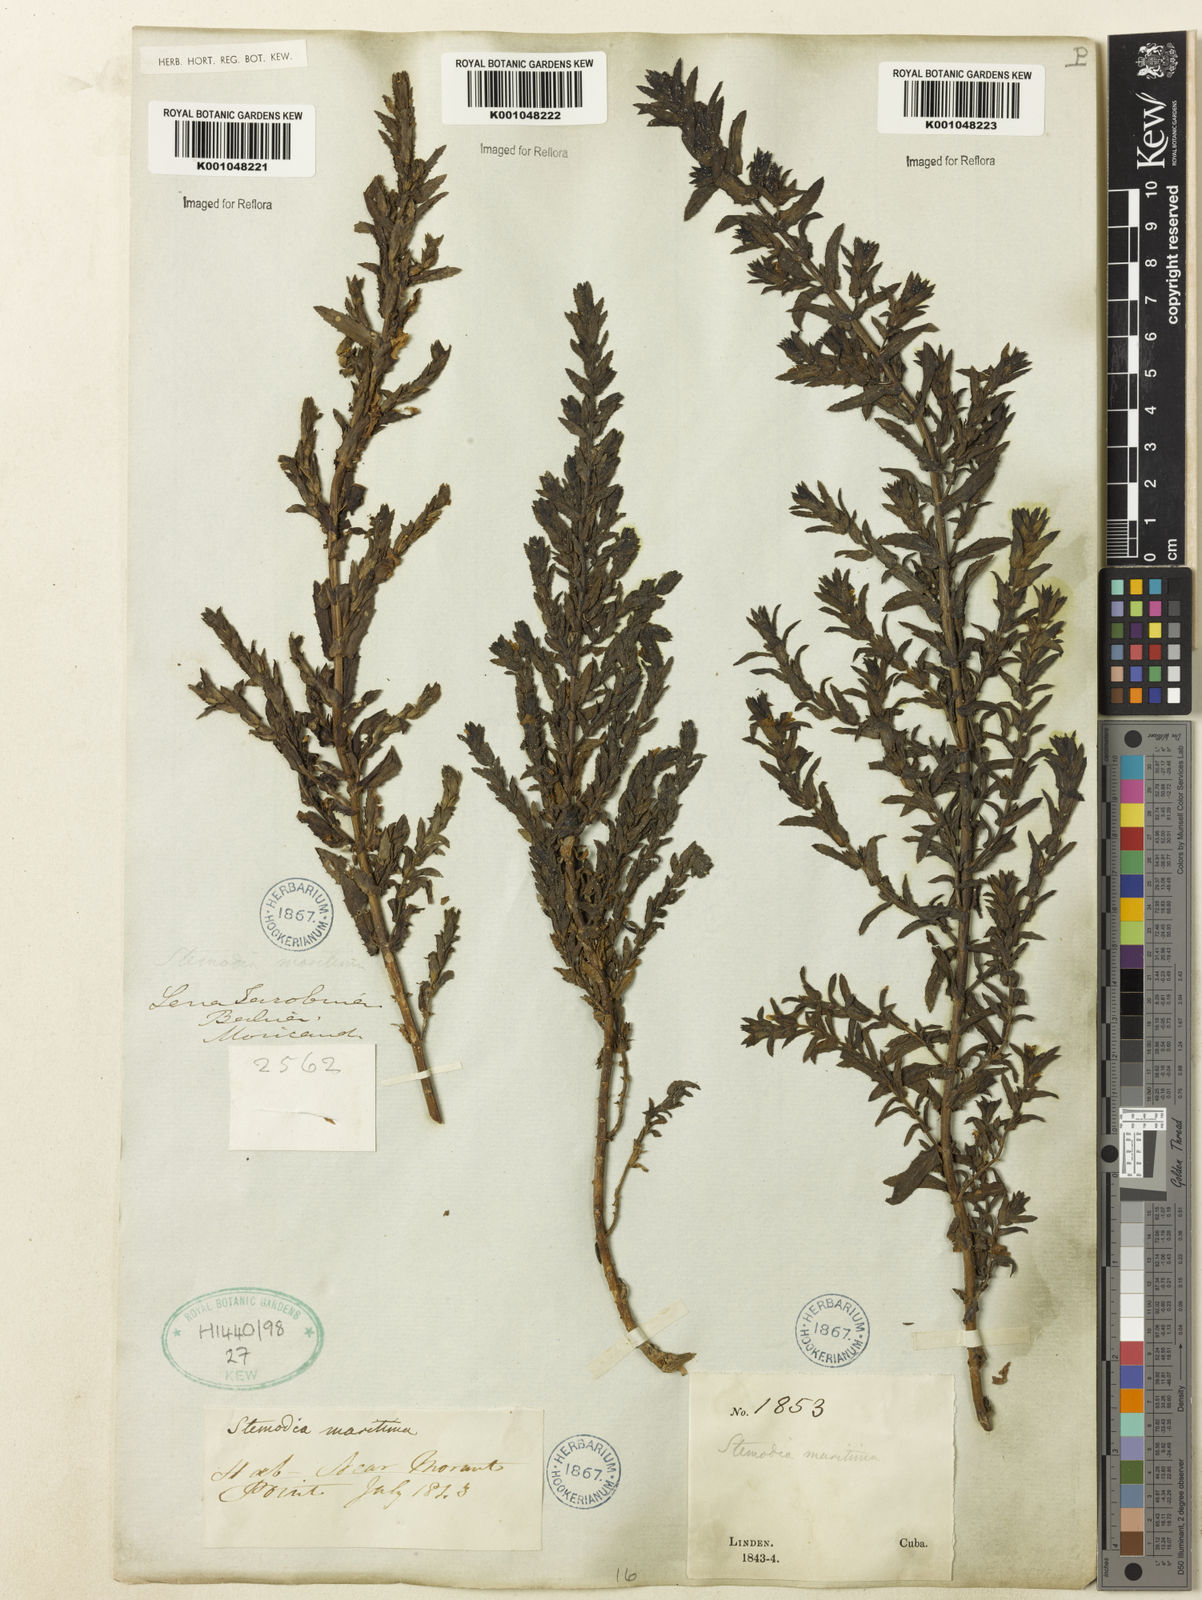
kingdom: Plantae
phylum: Tracheophyta
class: Magnoliopsida
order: Lamiales
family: Plantaginaceae
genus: Stemodia
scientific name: Stemodia maritima
